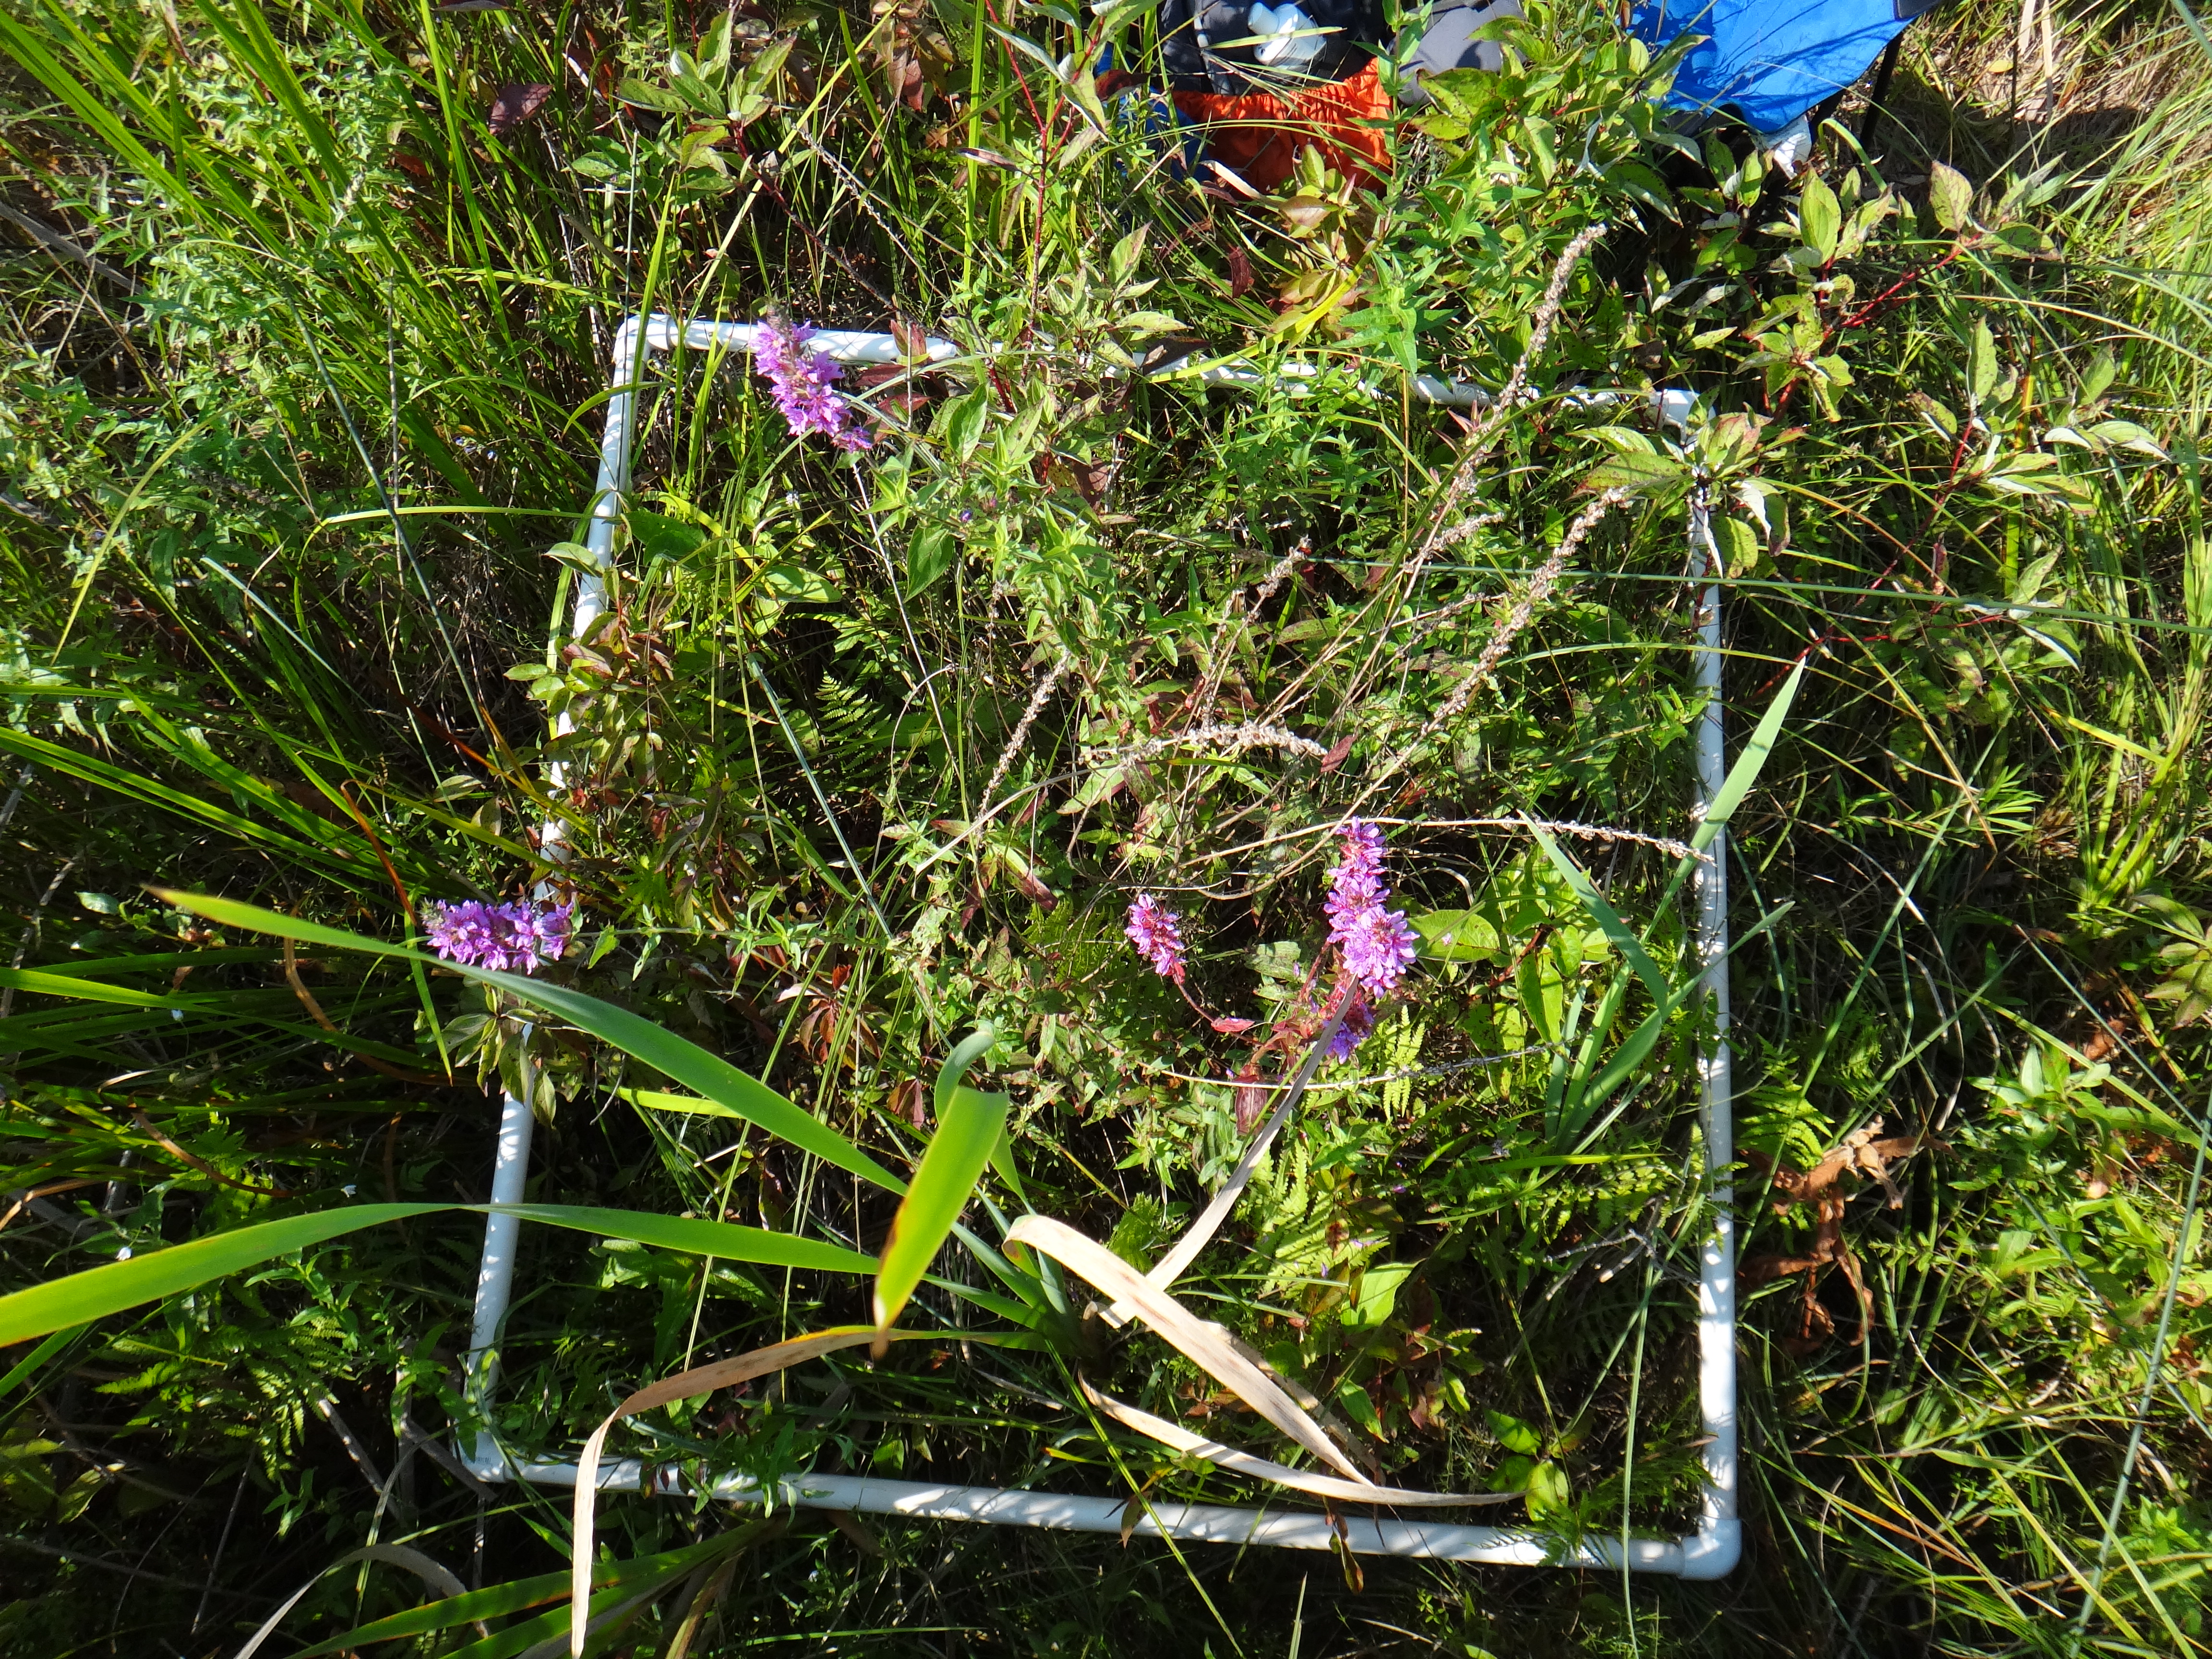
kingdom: Plantae
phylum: Tracheophyta
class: Liliopsida
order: Poales
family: Poaceae
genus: Muhlenbergia
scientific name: Muhlenbergia glomerata
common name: Bog muhly
